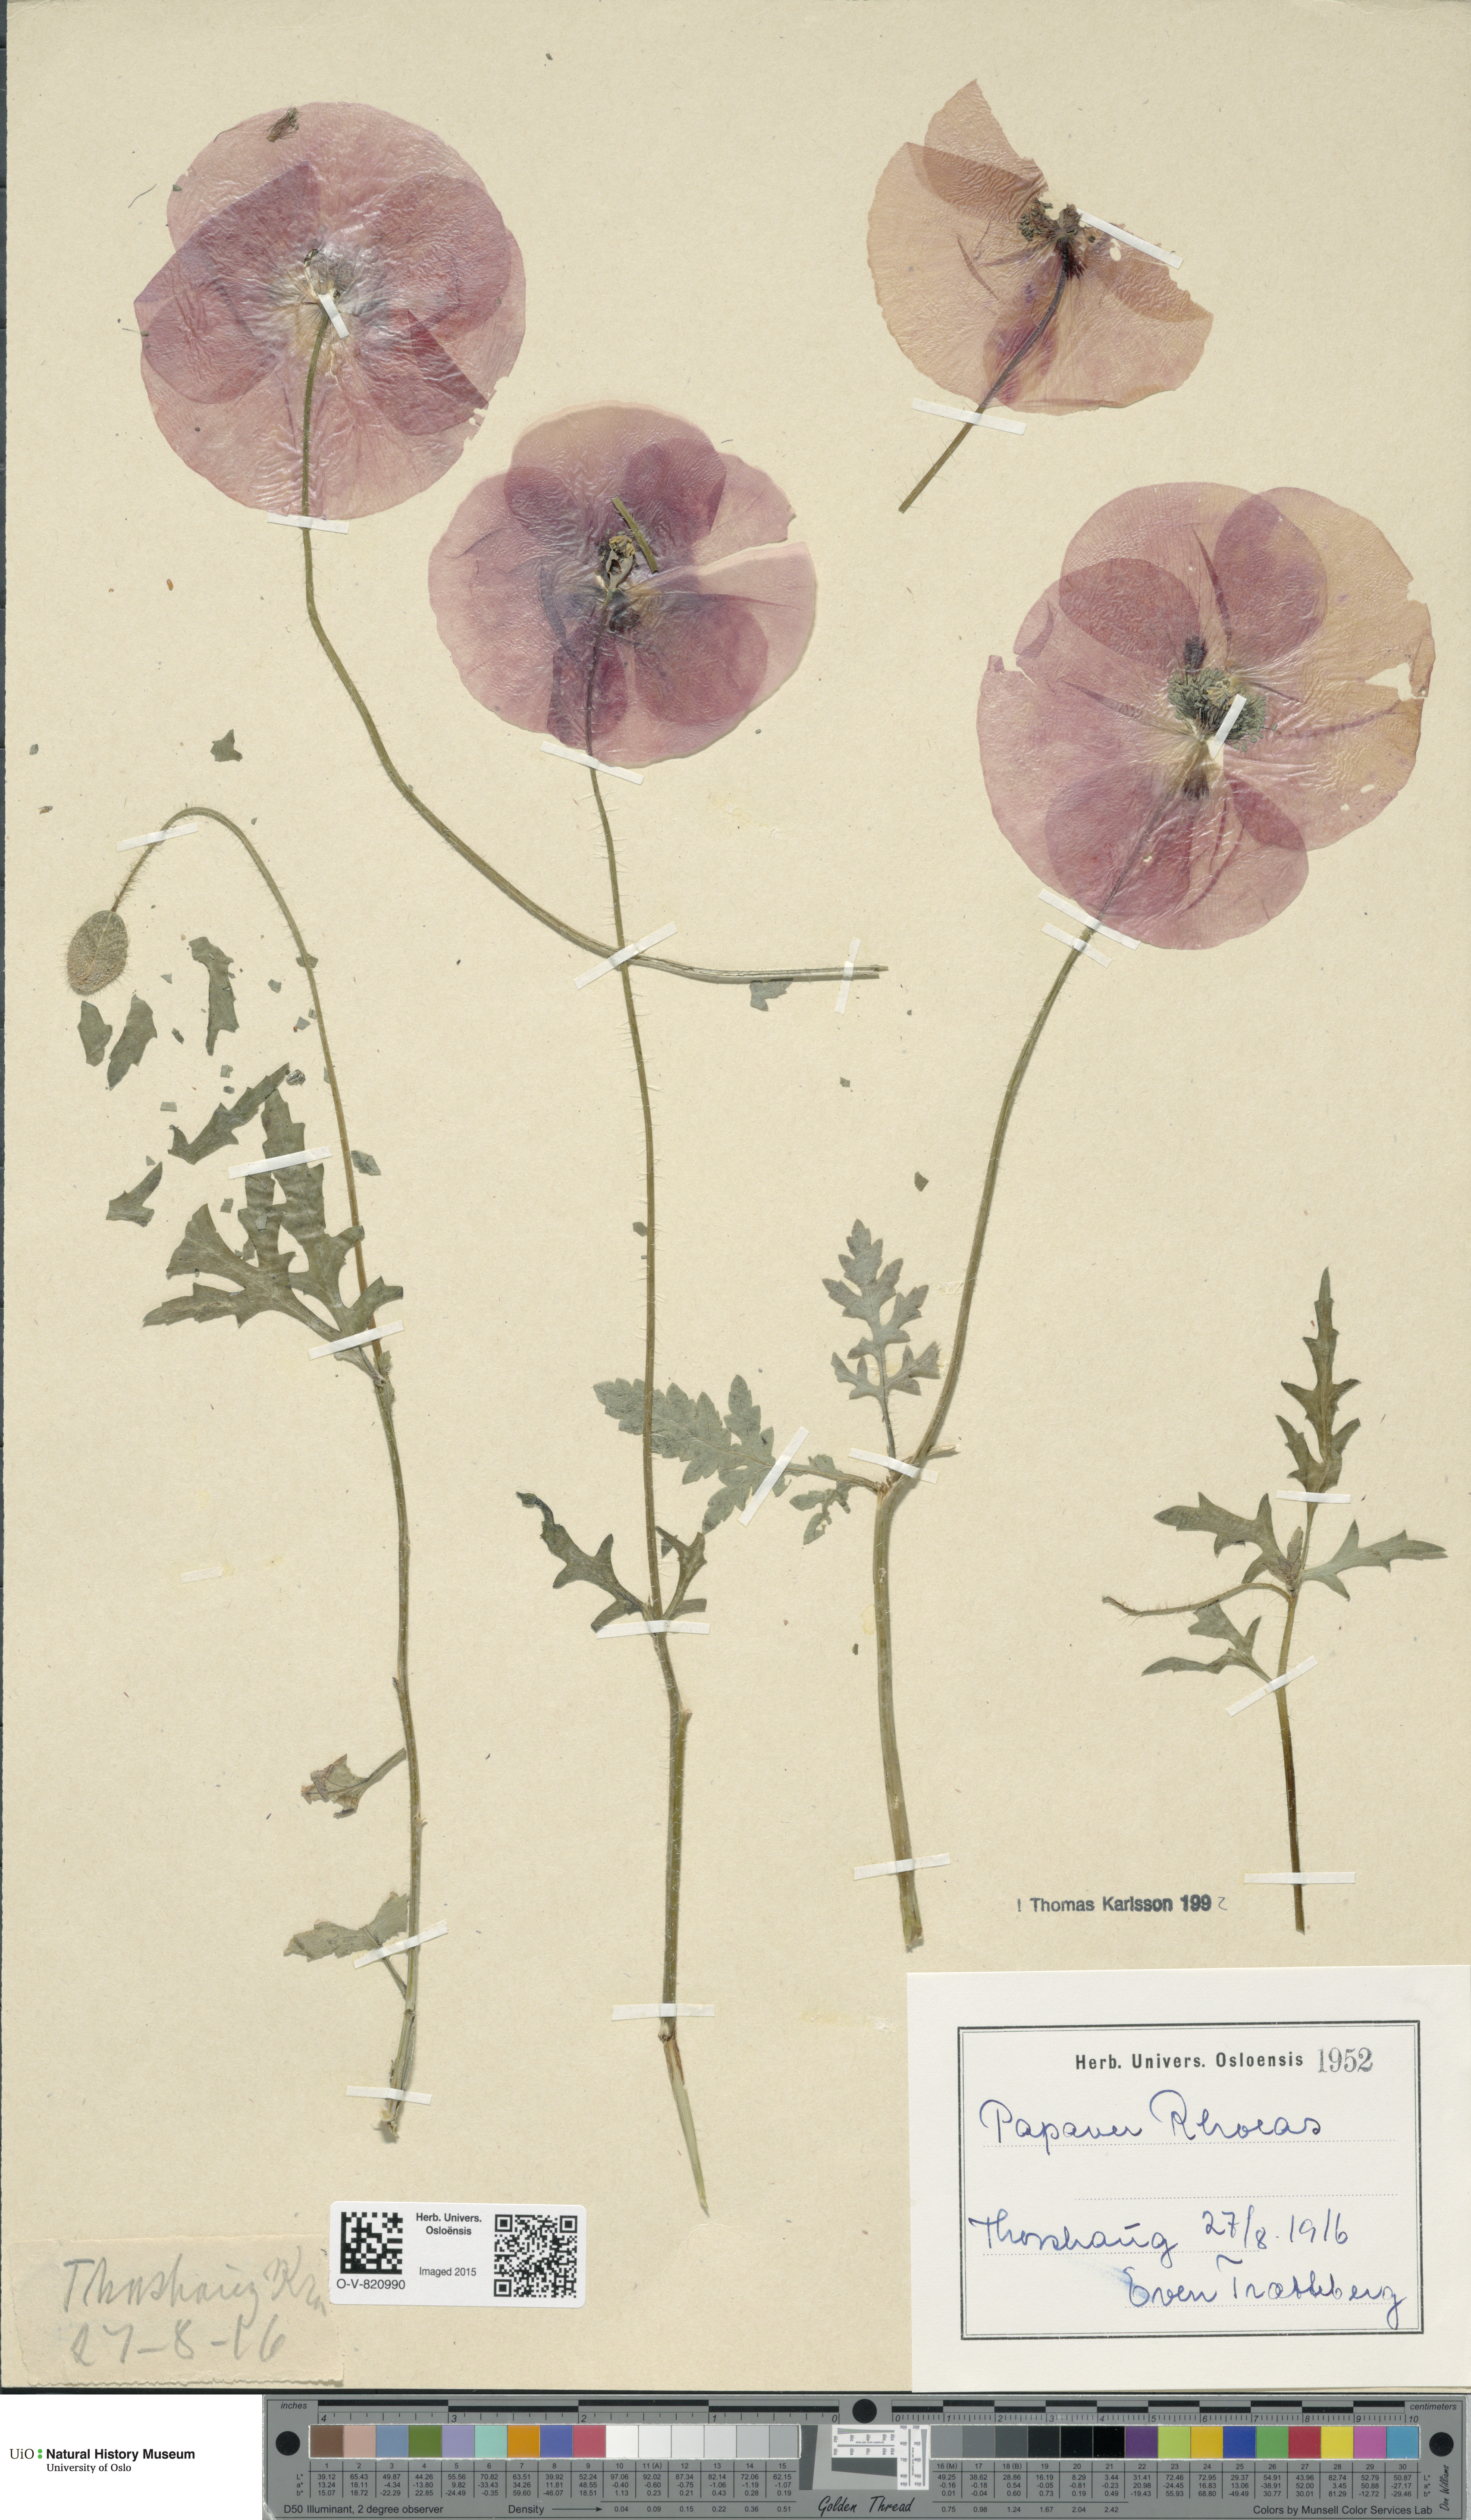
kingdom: Plantae
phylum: Tracheophyta
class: Magnoliopsida
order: Ranunculales
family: Papaveraceae
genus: Papaver
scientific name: Papaver rhoeas
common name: Corn poppy
